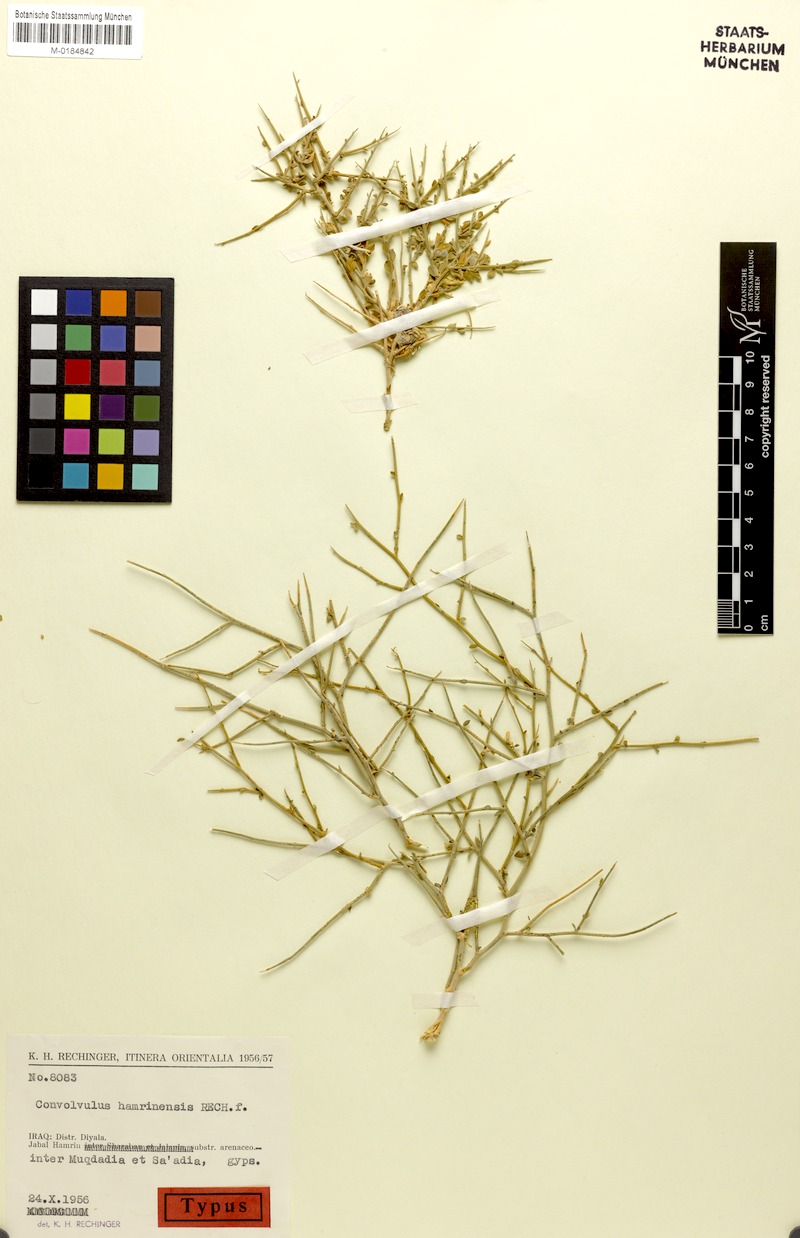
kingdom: Plantae
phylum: Tracheophyta
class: Magnoliopsida
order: Solanales
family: Convolvulaceae
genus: Convolvulus
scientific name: Convolvulus hamrinensis
